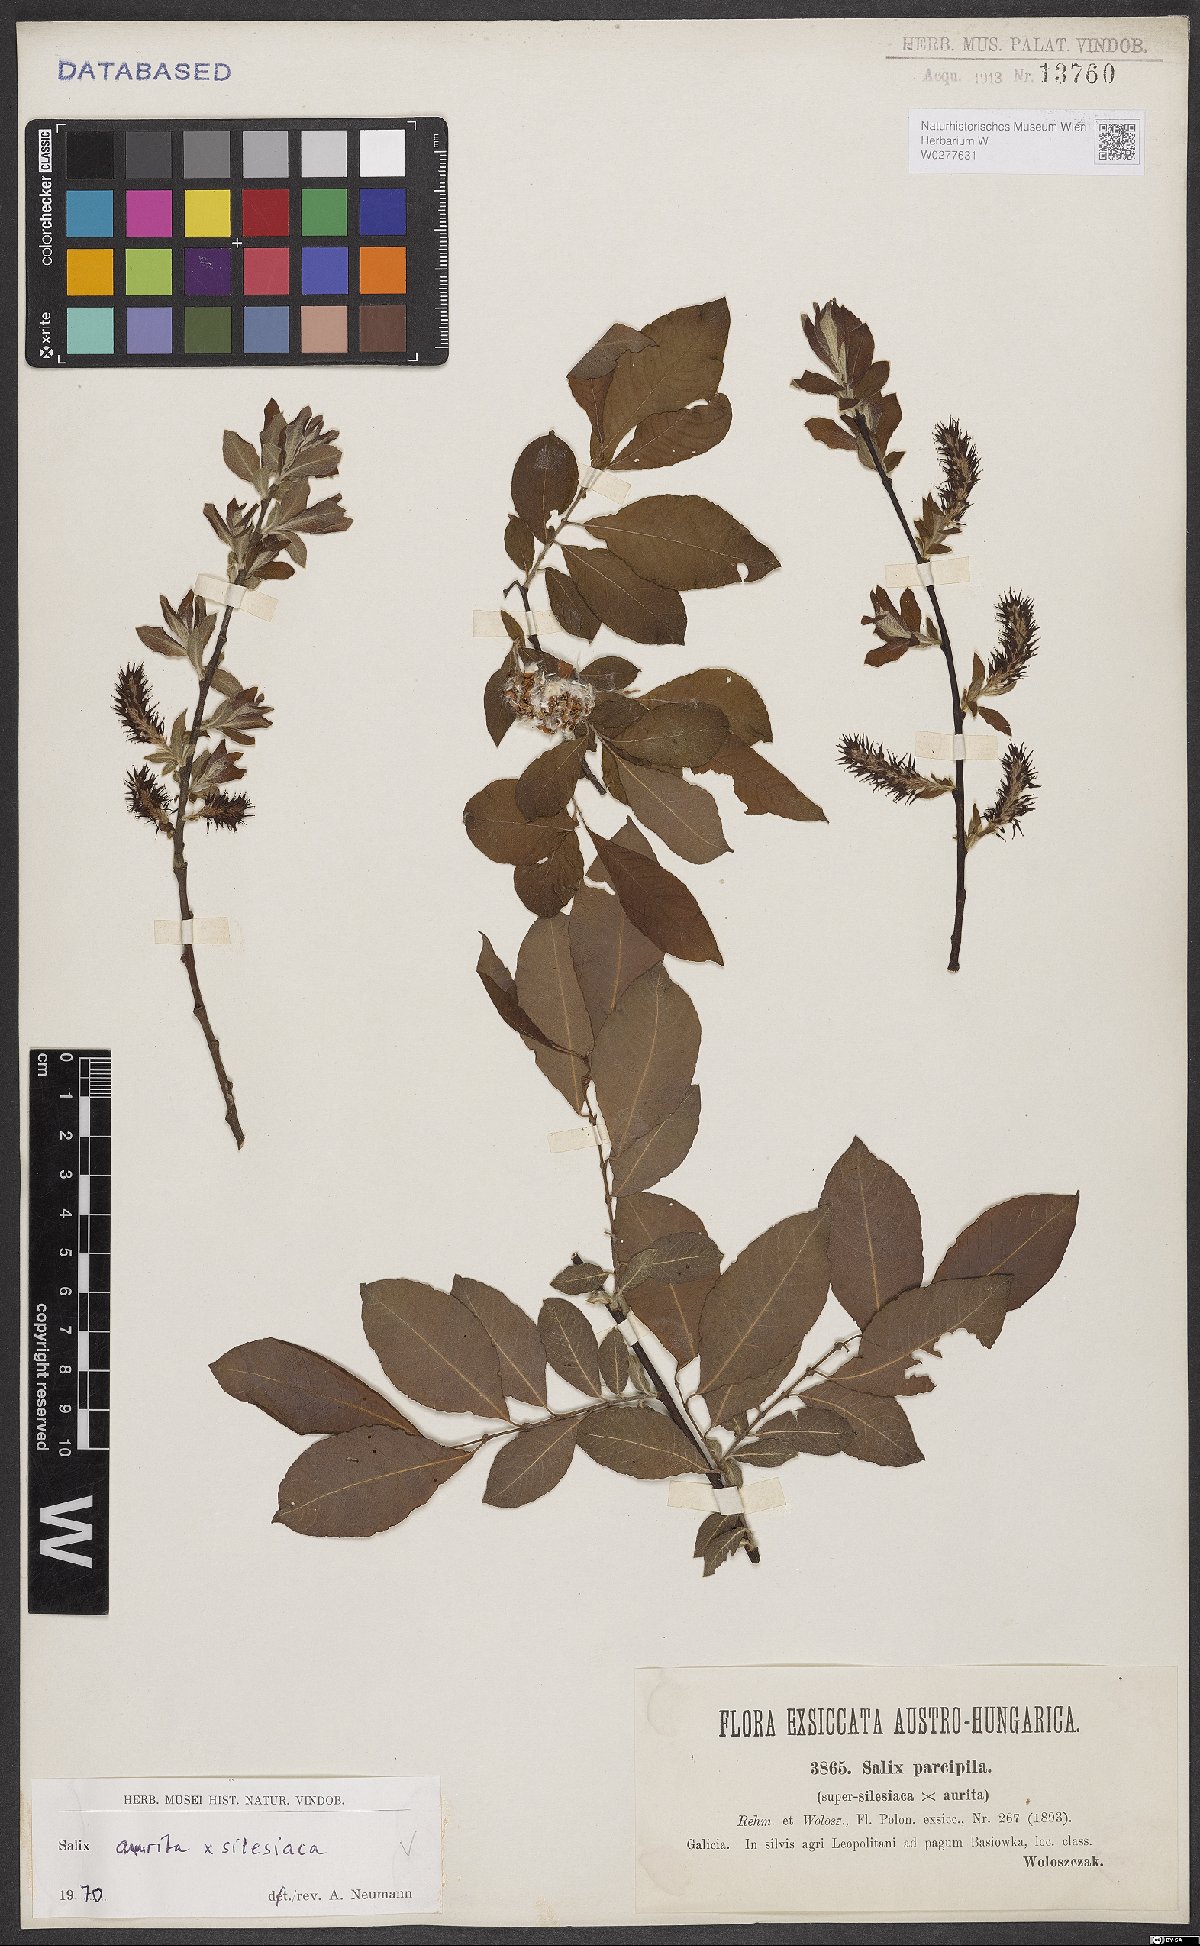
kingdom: Plantae
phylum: Tracheophyta
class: Magnoliopsida
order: Malpighiales
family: Salicaceae
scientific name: Salicaceae
